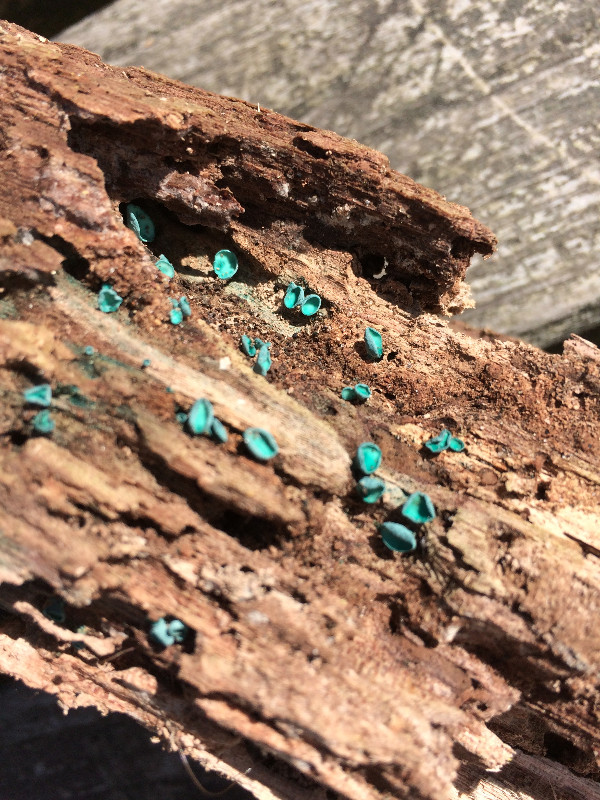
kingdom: Fungi
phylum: Ascomycota
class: Leotiomycetes
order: Helotiales
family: Chlorociboriaceae
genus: Chlorociboria
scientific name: Chlorociboria aeruginascens
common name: almindelig grønskive
